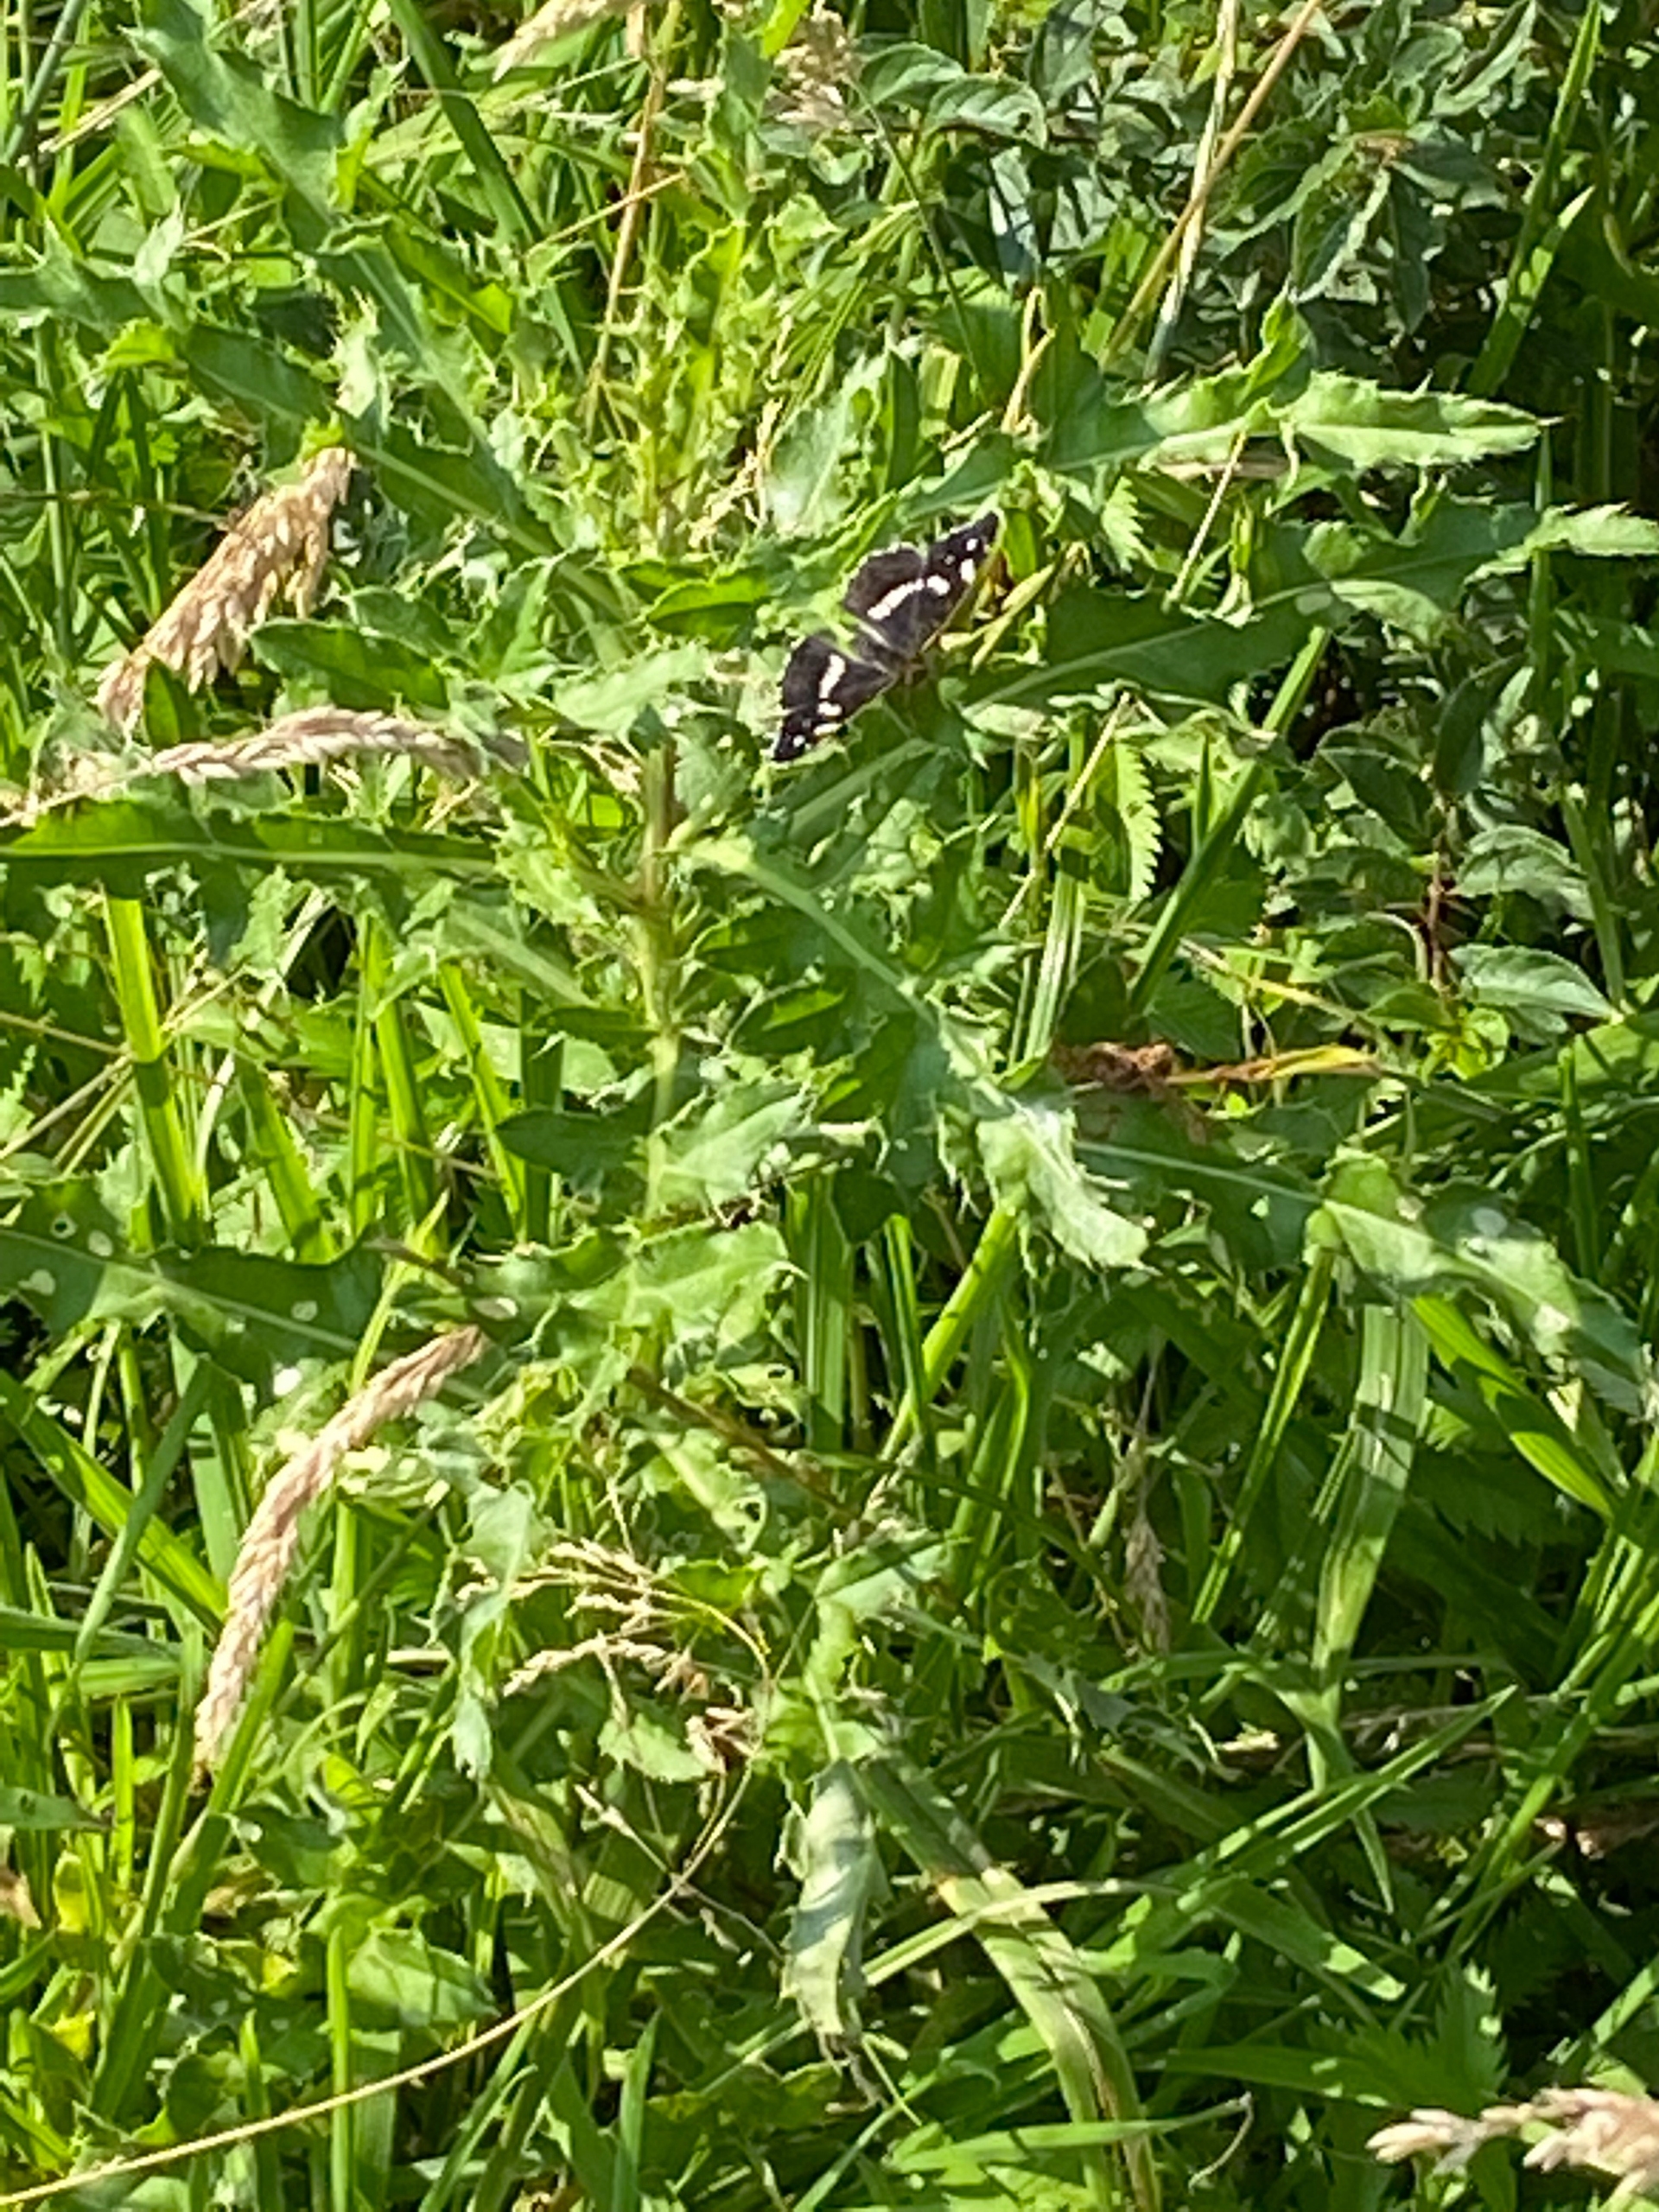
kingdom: Animalia
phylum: Arthropoda
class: Insecta
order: Lepidoptera
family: Nymphalidae
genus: Araschnia
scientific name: Araschnia levana
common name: Nældesommerfugl
